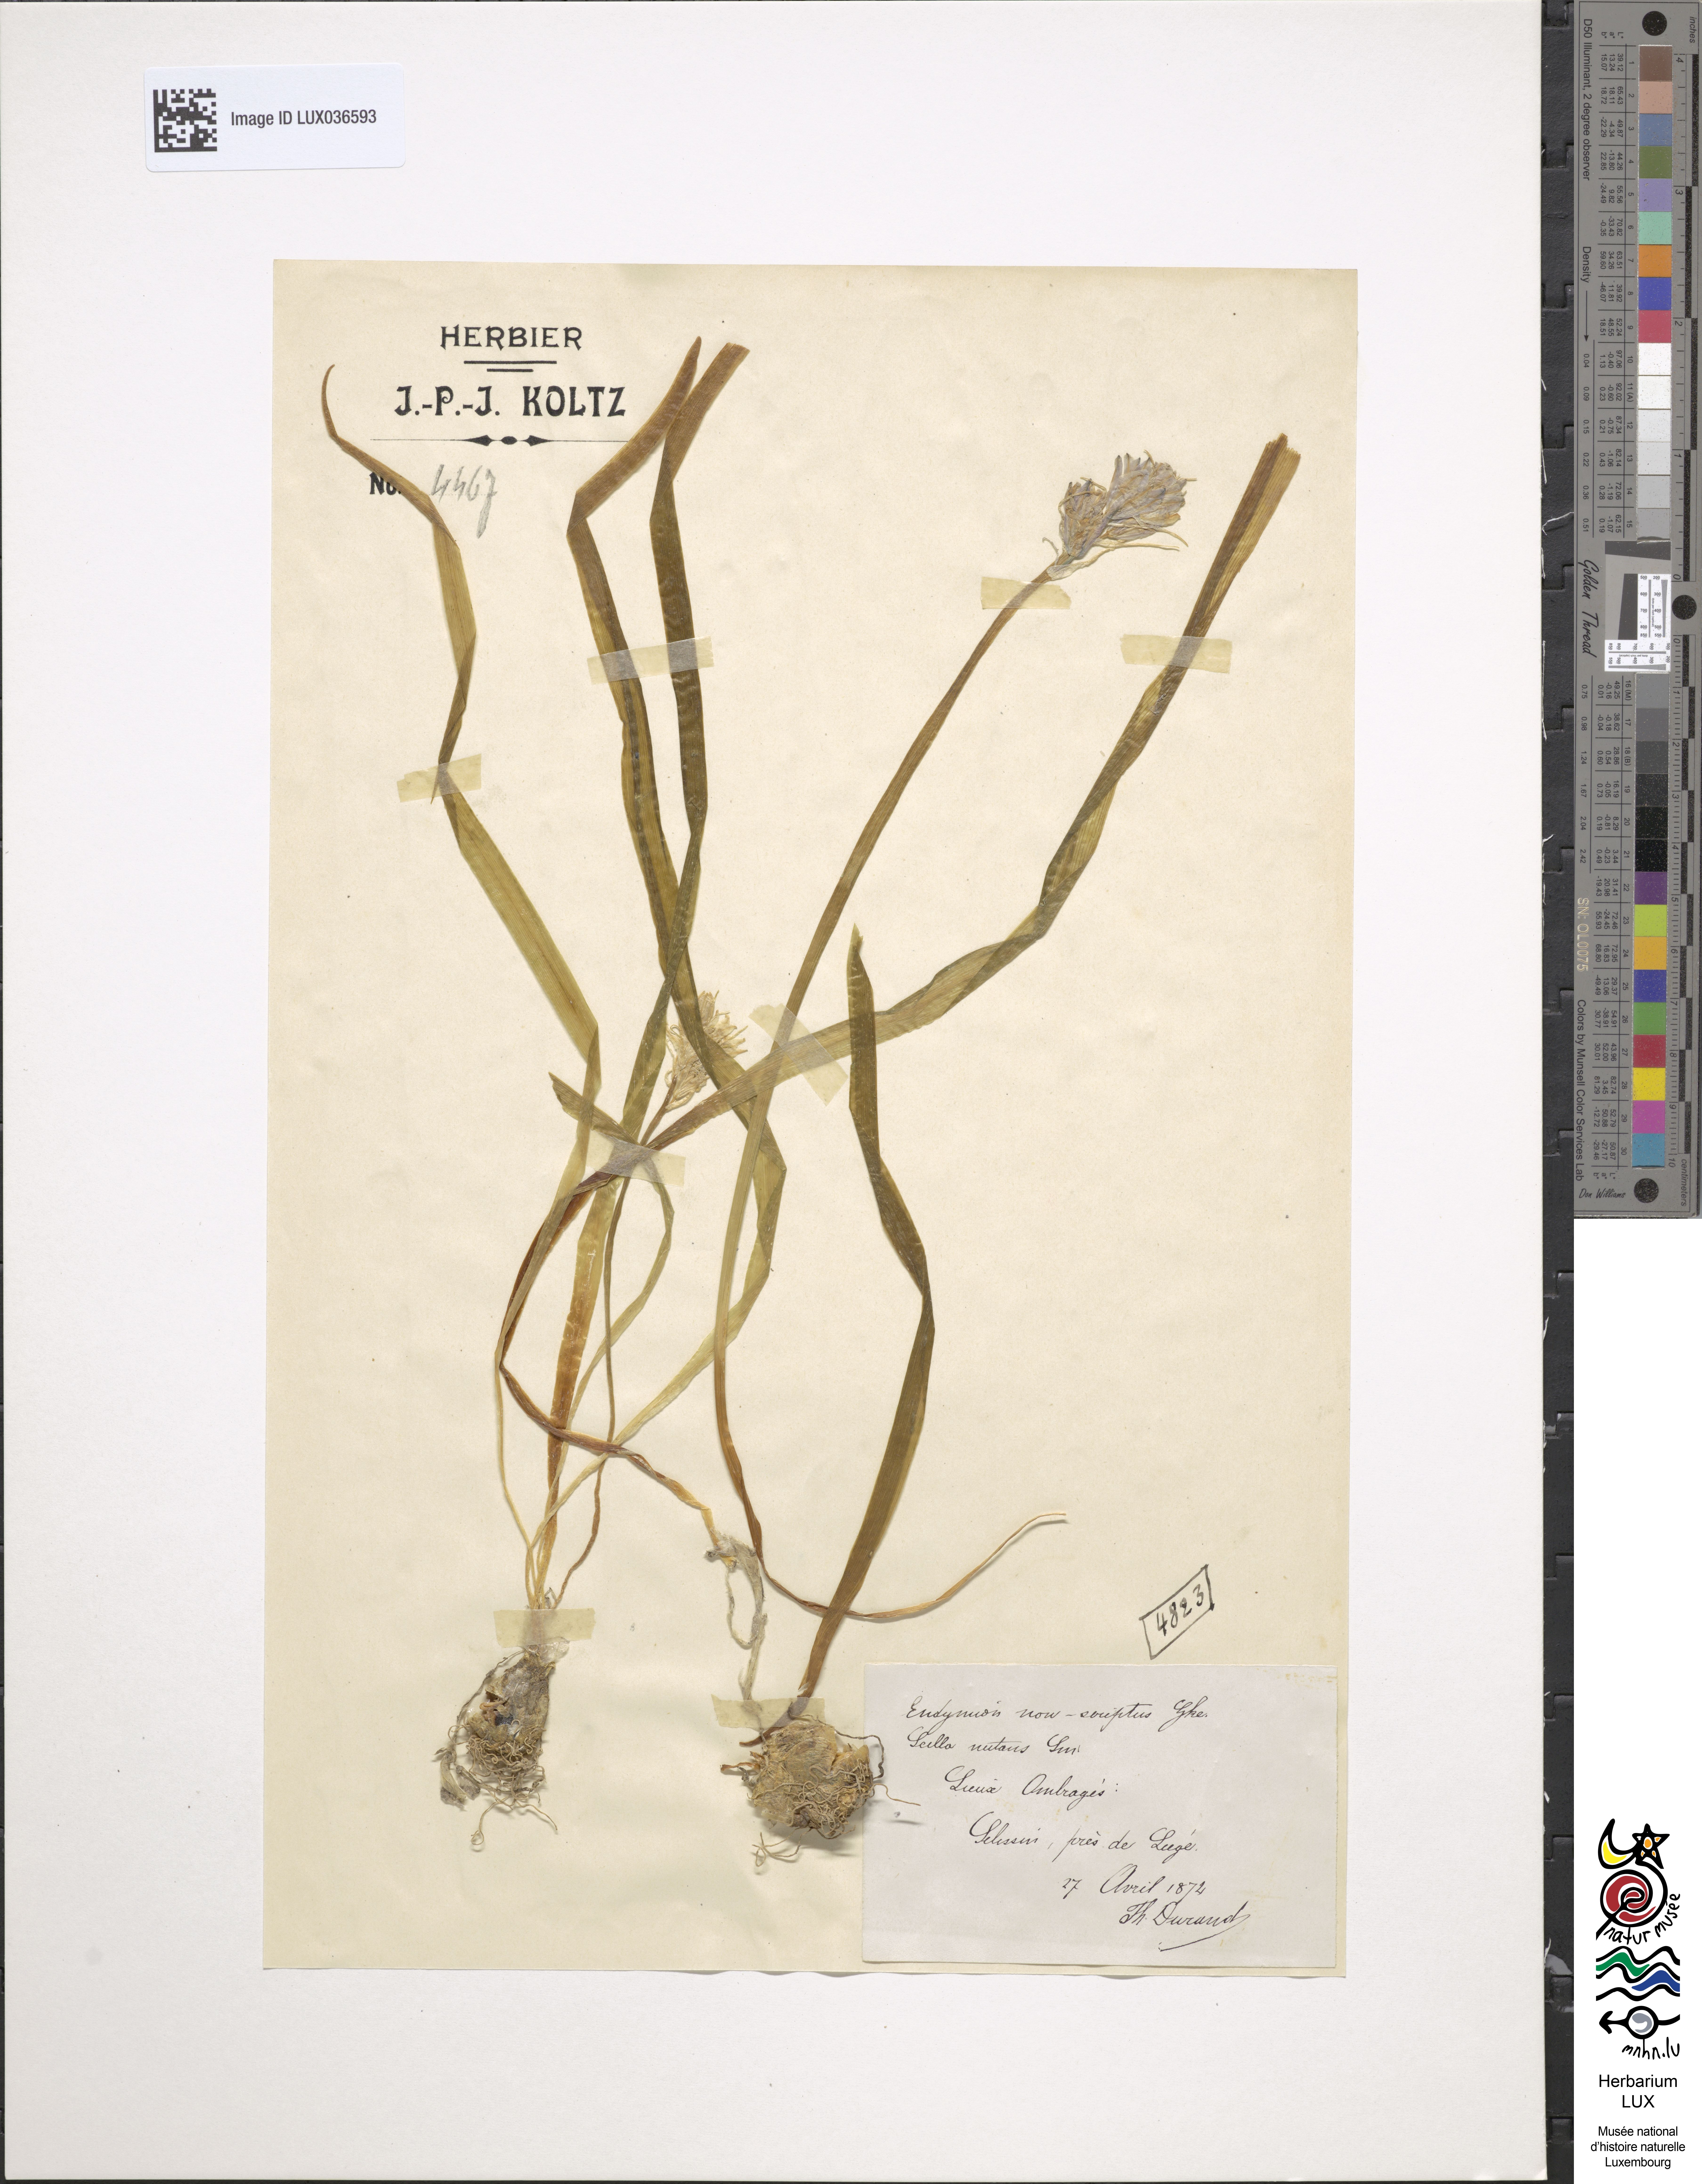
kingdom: Plantae
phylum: Tracheophyta
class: Liliopsida
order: Asparagales
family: Asparagaceae
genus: Hyacinthoides
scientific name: Hyacinthoides non-scripta
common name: Bluebell
